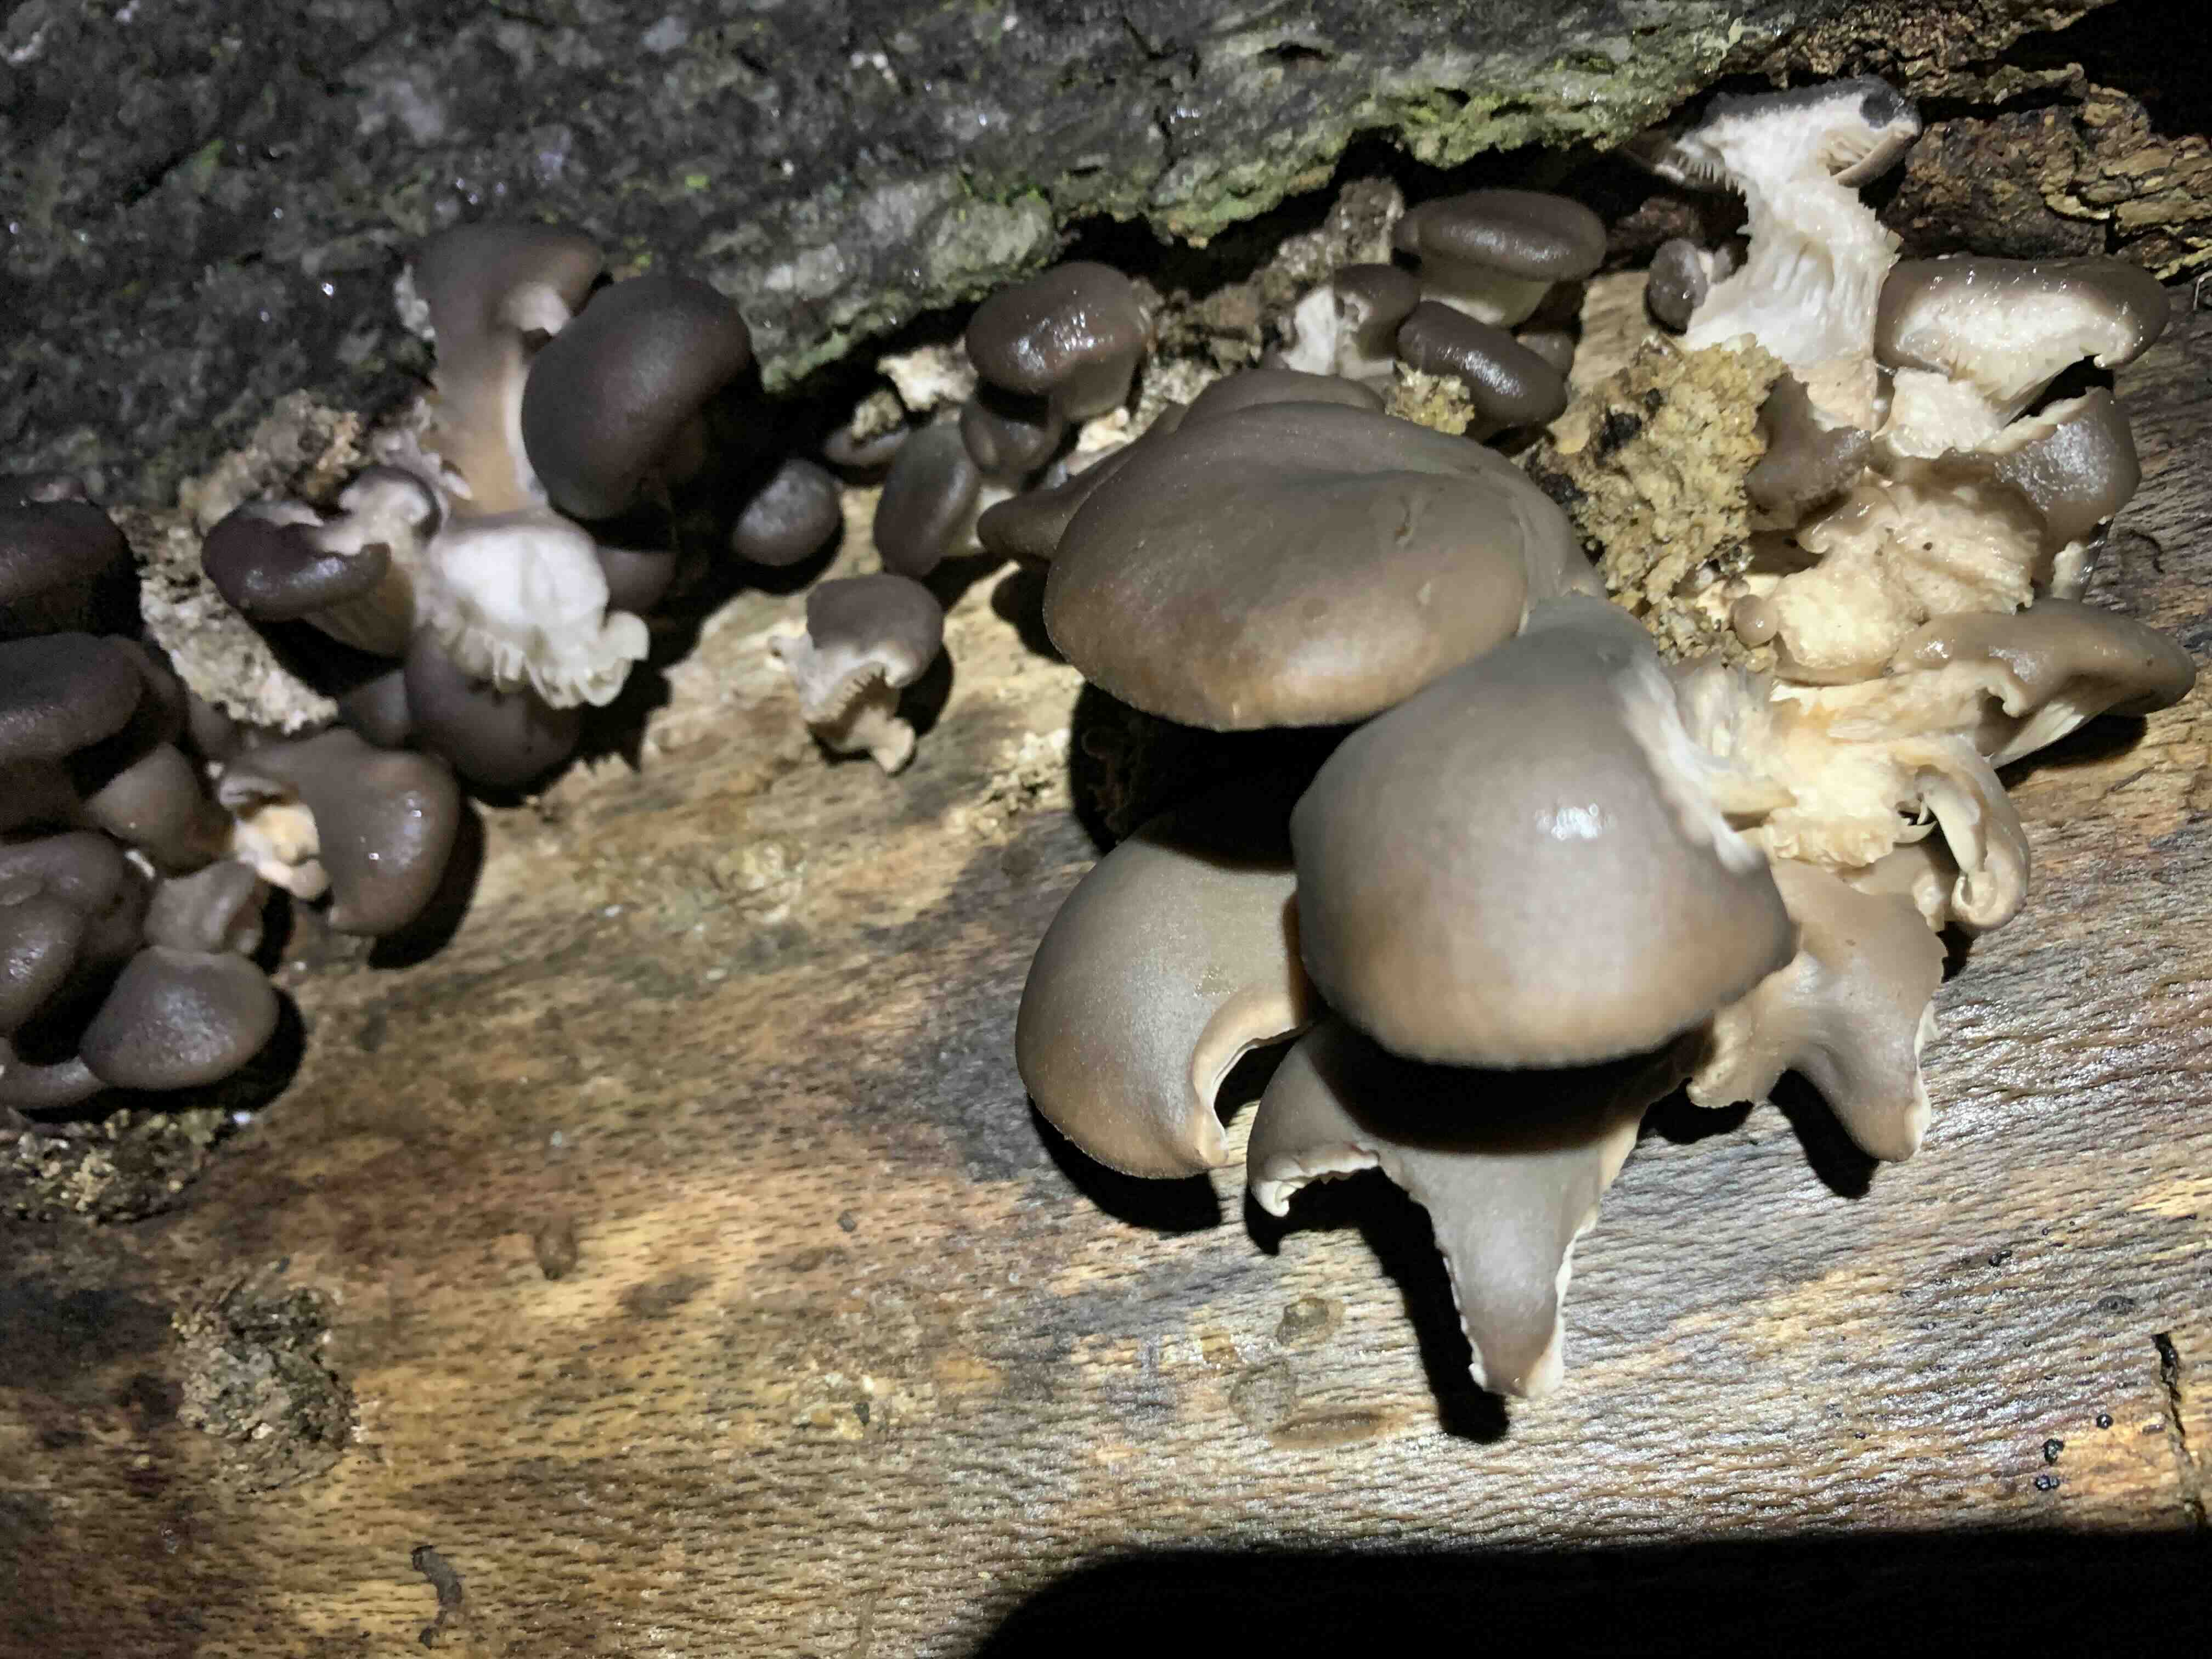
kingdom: Fungi
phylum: Basidiomycota
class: Agaricomycetes
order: Agaricales
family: Pleurotaceae
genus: Pleurotus
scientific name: Pleurotus ostreatus
